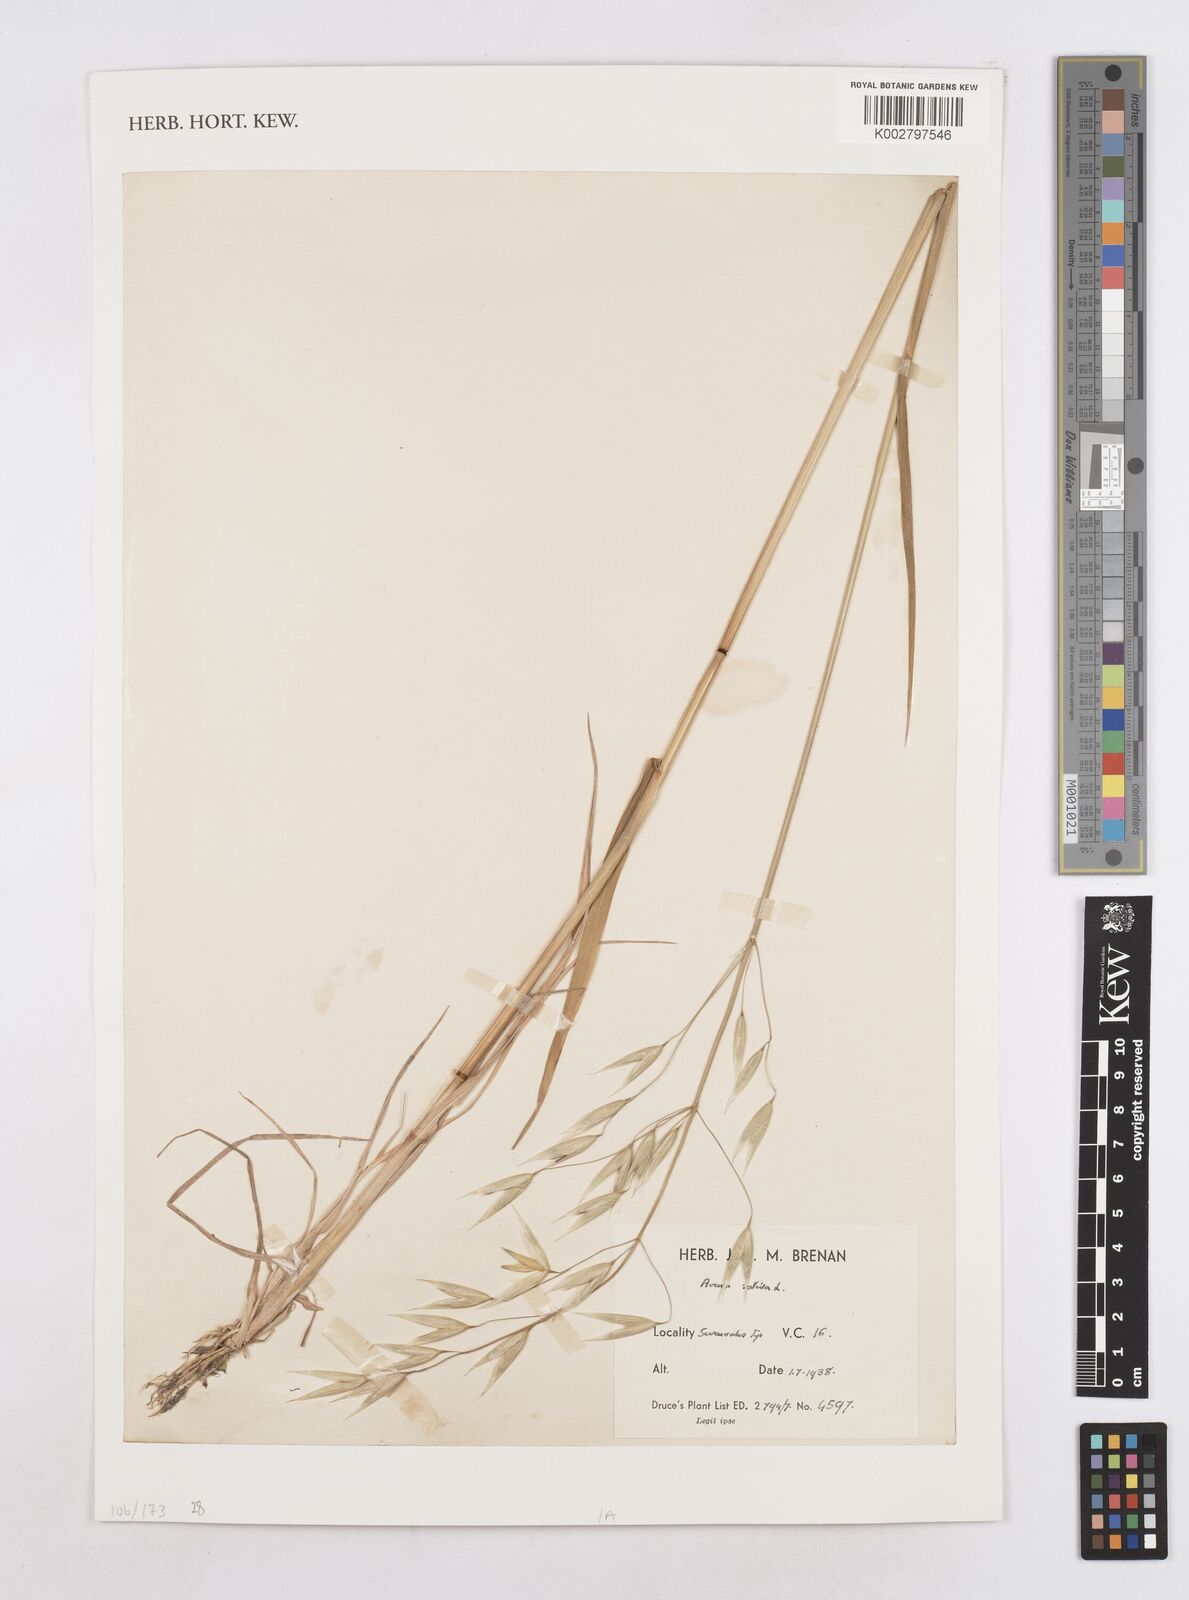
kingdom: Plantae
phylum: Tracheophyta
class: Liliopsida
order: Poales
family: Poaceae
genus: Avena
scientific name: Avena sativa
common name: Oat
